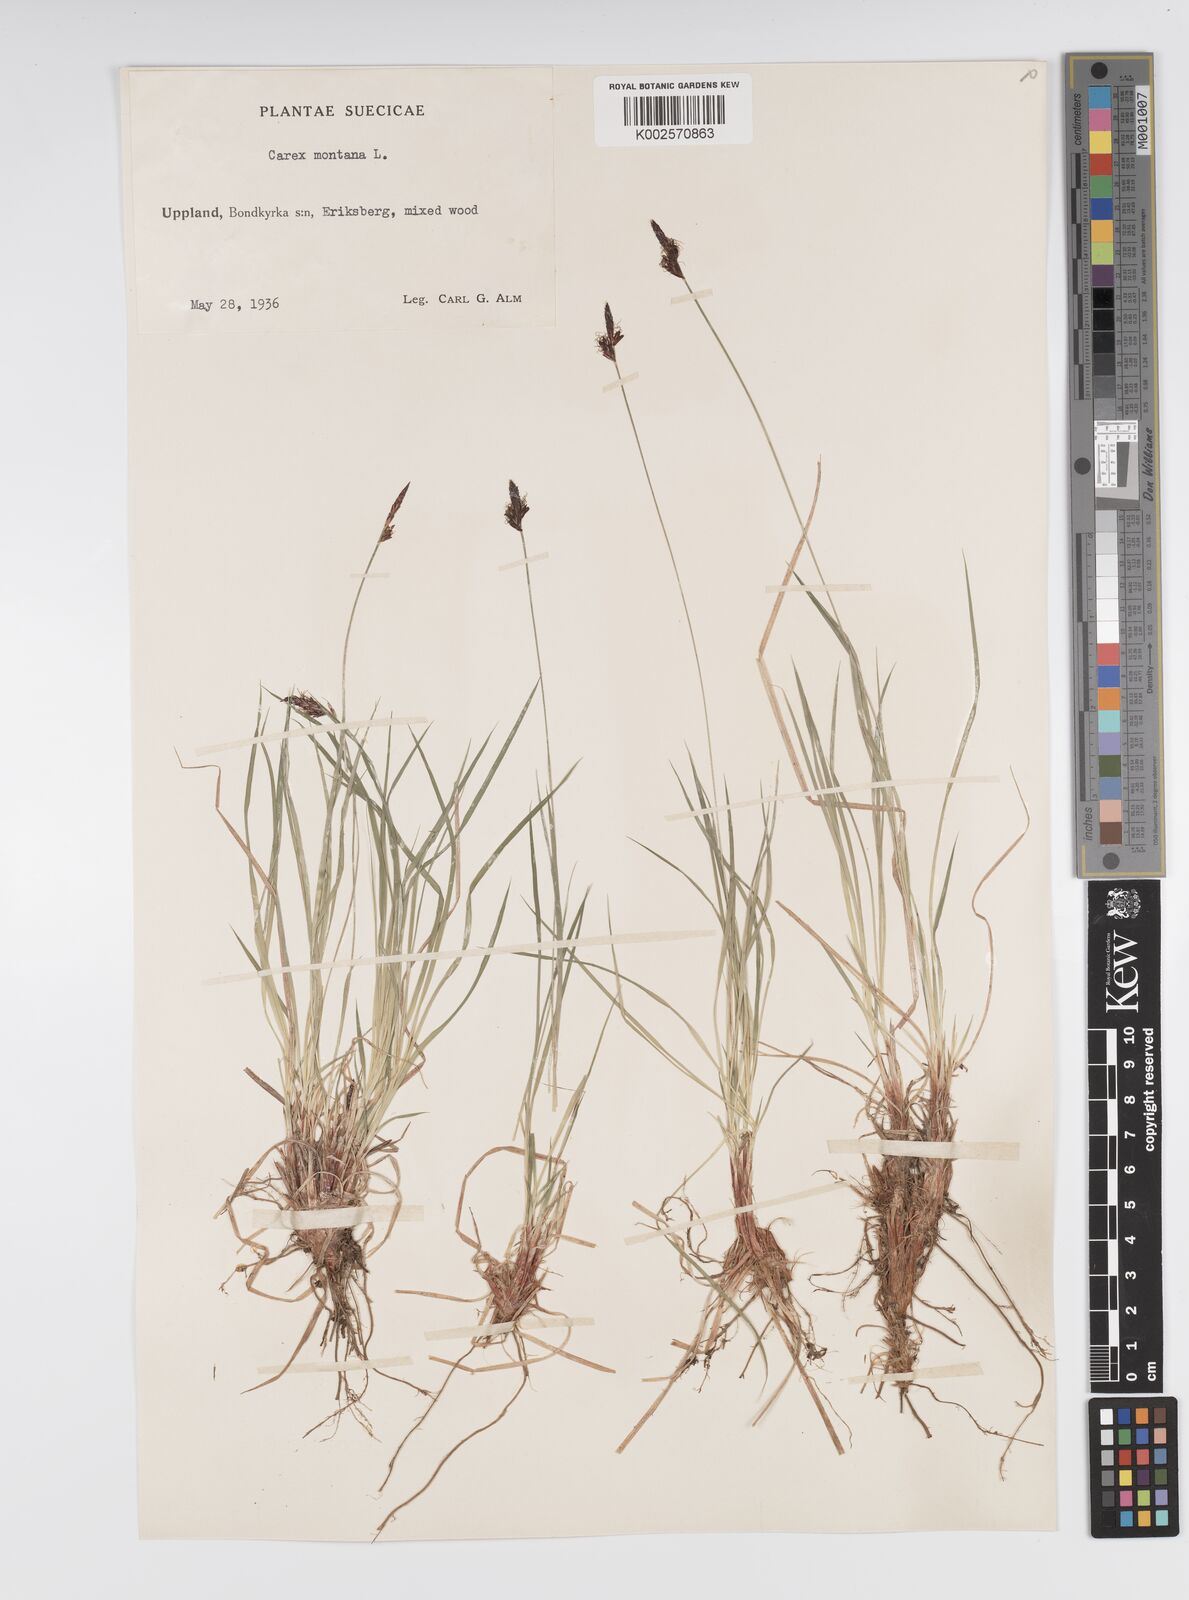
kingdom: Plantae
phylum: Tracheophyta
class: Liliopsida
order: Poales
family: Cyperaceae
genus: Carex
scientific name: Carex montana
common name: Soft-leaved sedge
